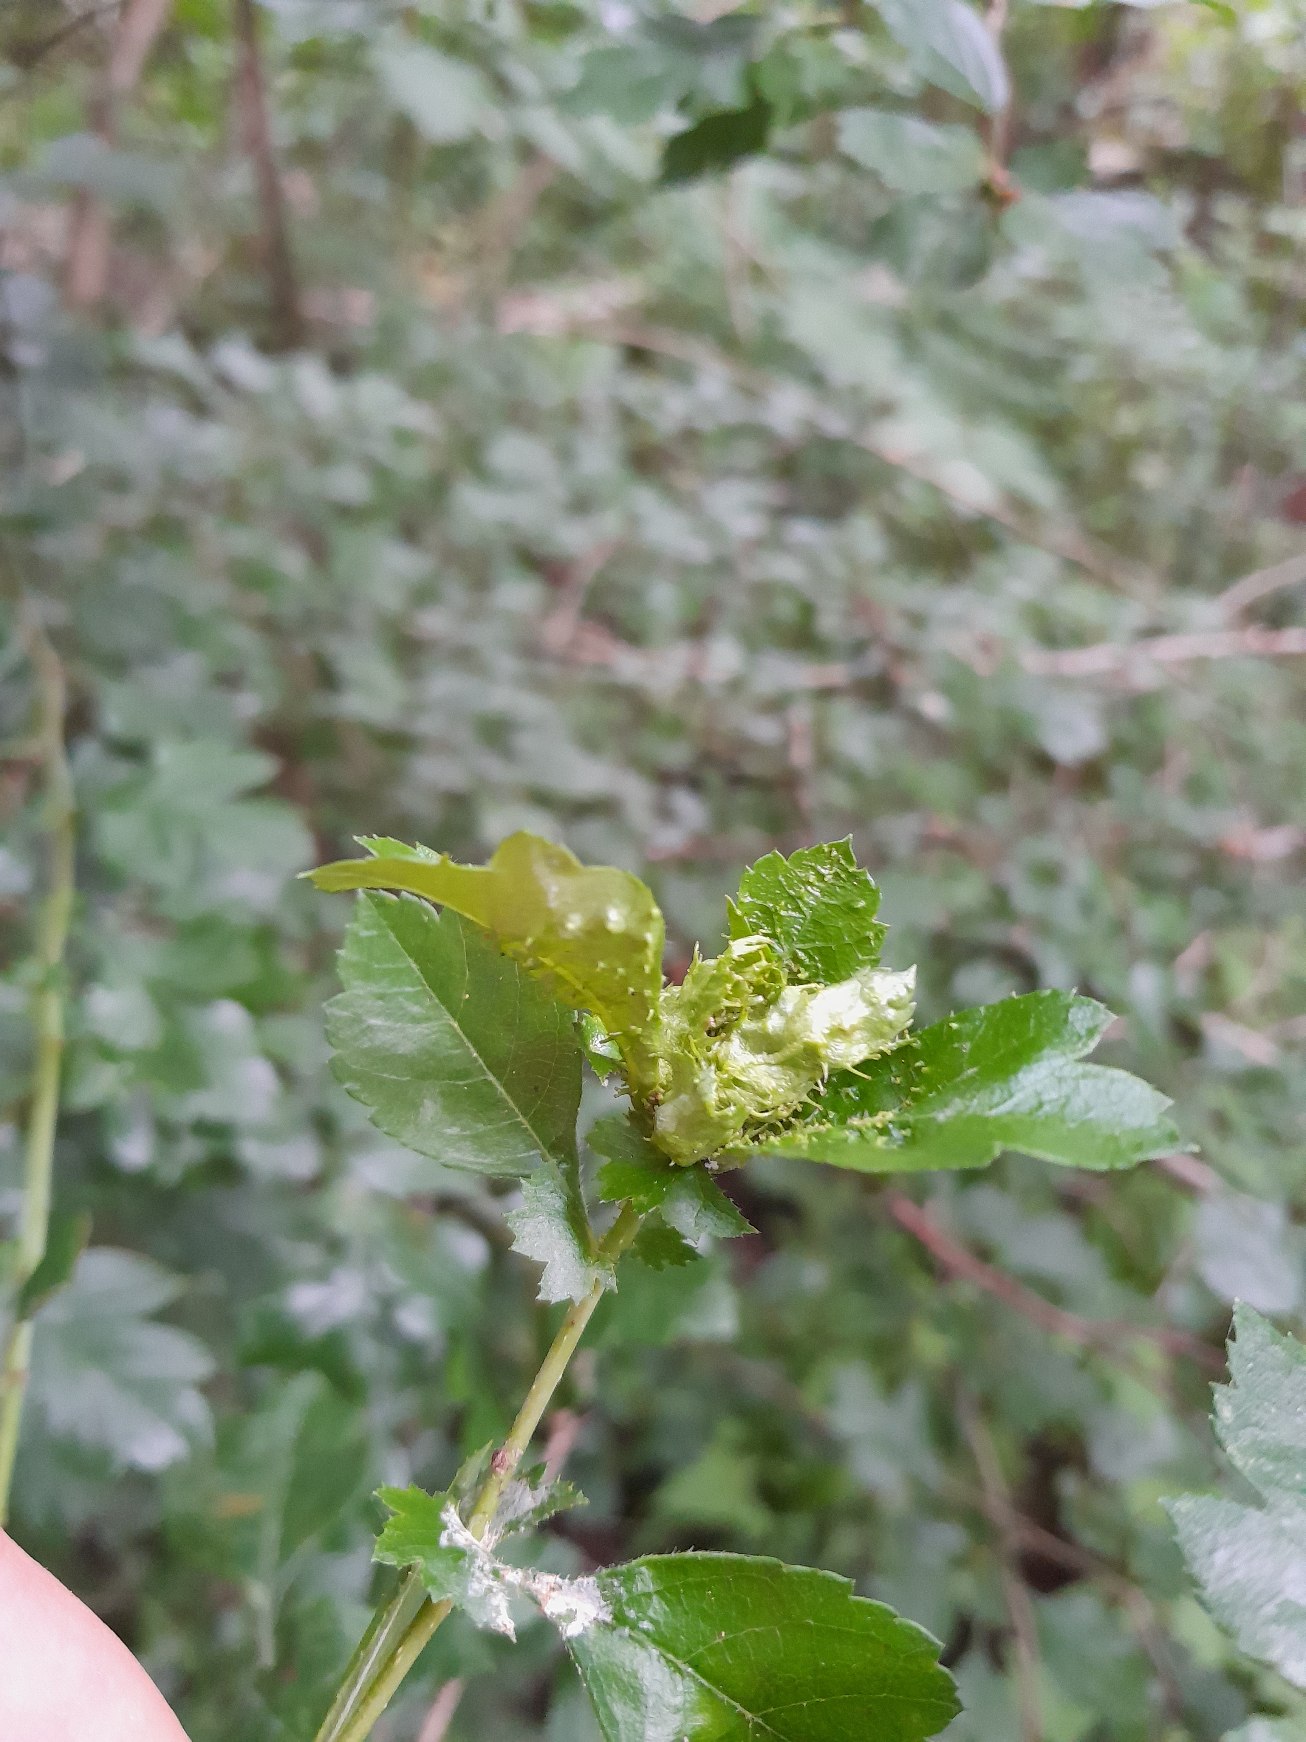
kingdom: Animalia
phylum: Arthropoda
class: Insecta
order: Diptera
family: Cecidomyiidae
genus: Dasineura
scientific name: Dasineura crataegi
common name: Tjørnerosetgalmyg
